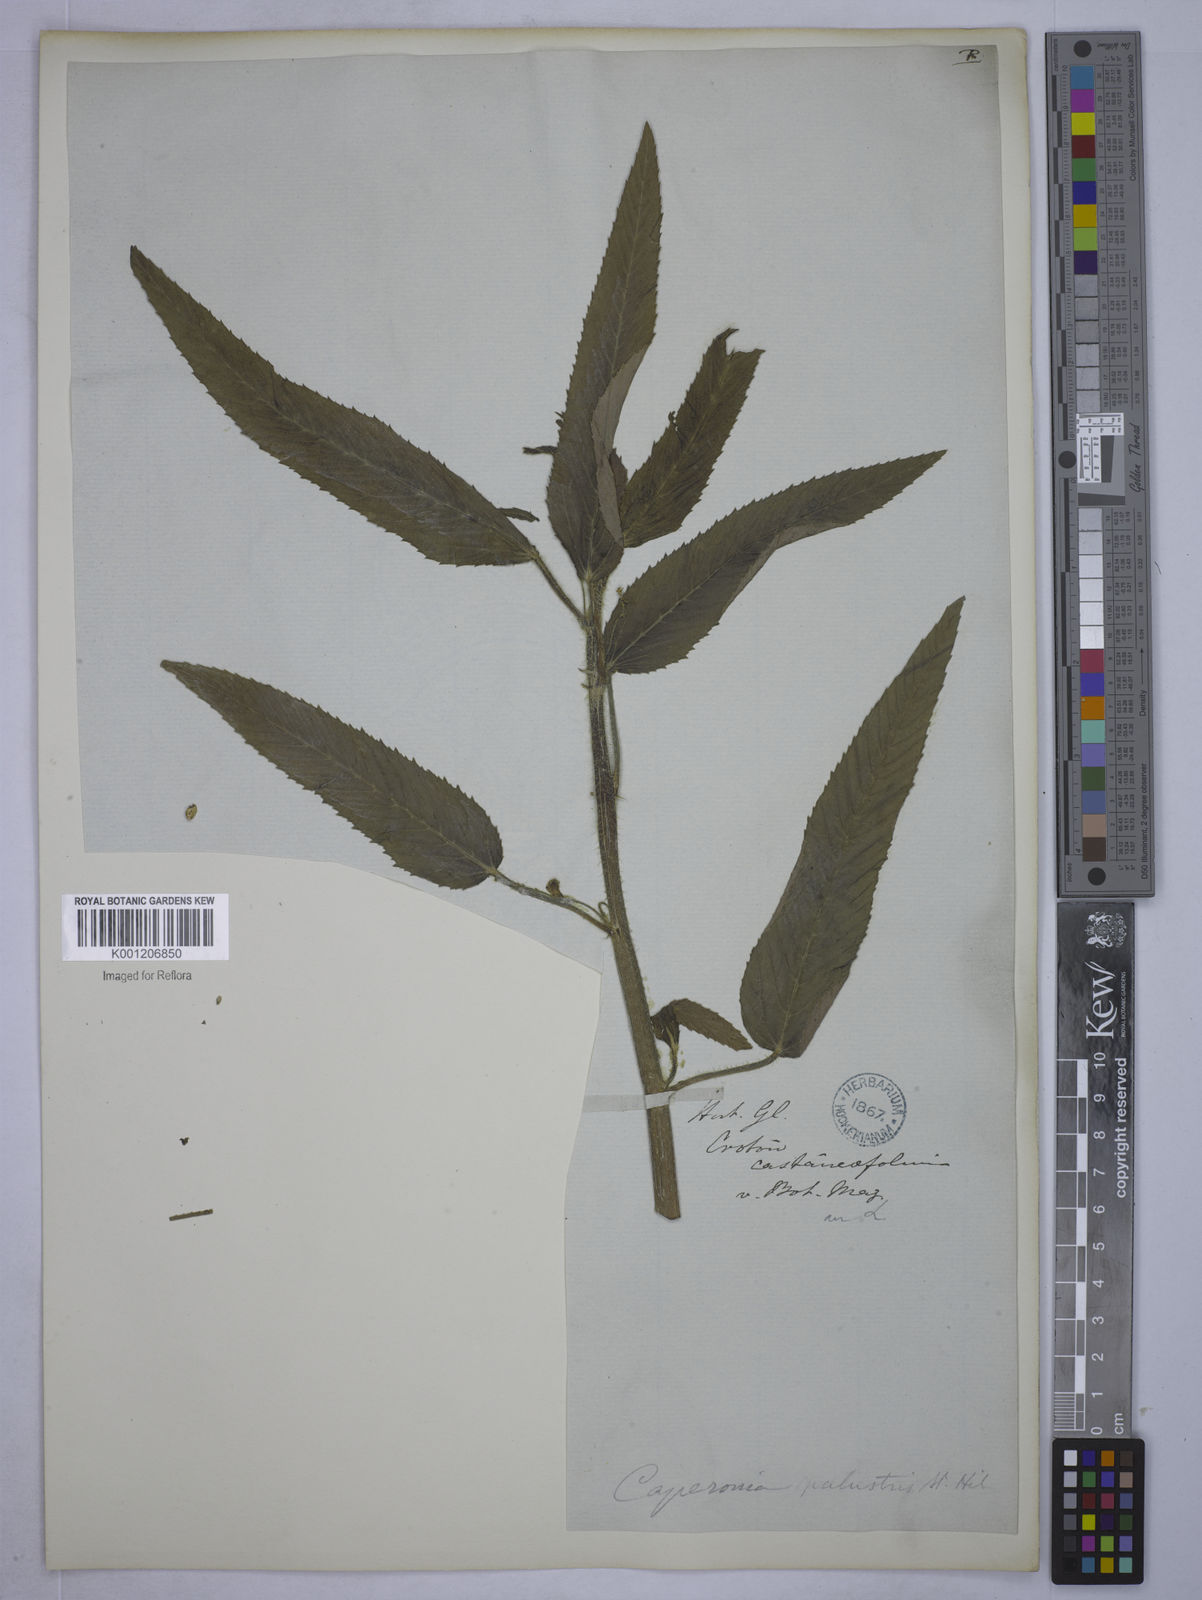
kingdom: Plantae
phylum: Tracheophyta
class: Magnoliopsida
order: Malpighiales
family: Euphorbiaceae
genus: Caperonia
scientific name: Caperonia palustris
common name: Sacatrapo
